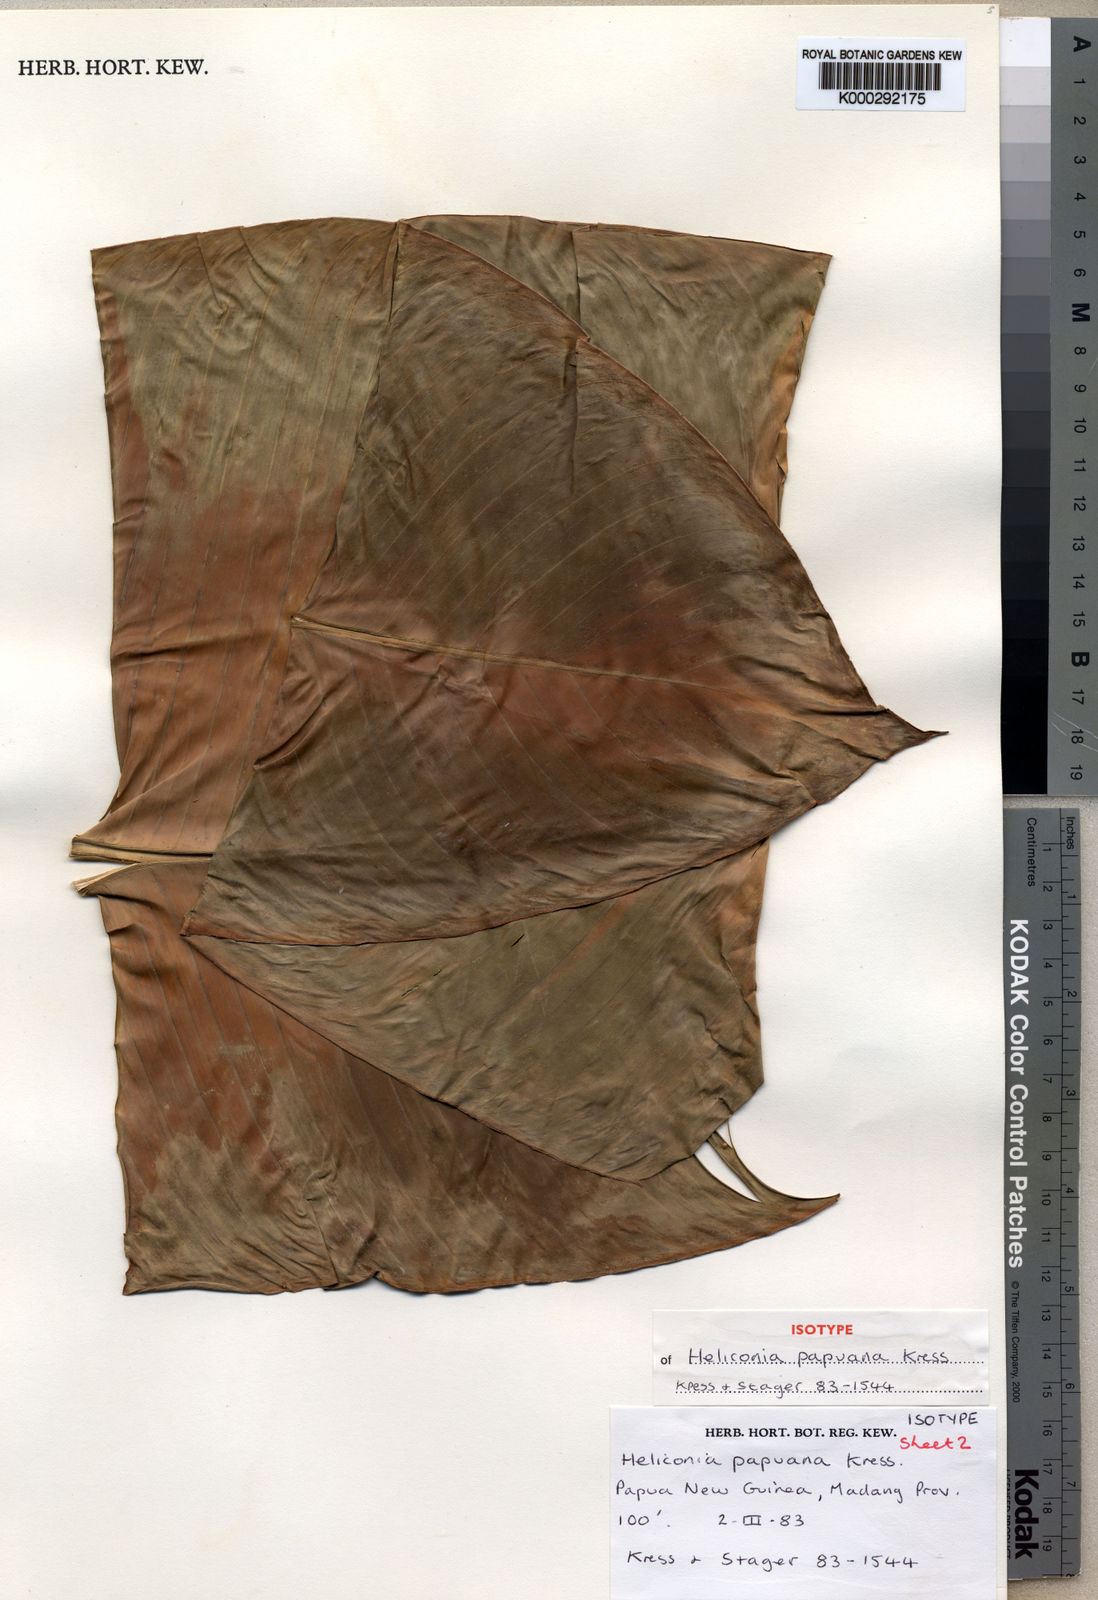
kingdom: Plantae
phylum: Tracheophyta
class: Liliopsida
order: Zingiberales
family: Heliconiaceae
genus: Heliconia
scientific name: Heliconia papuana
